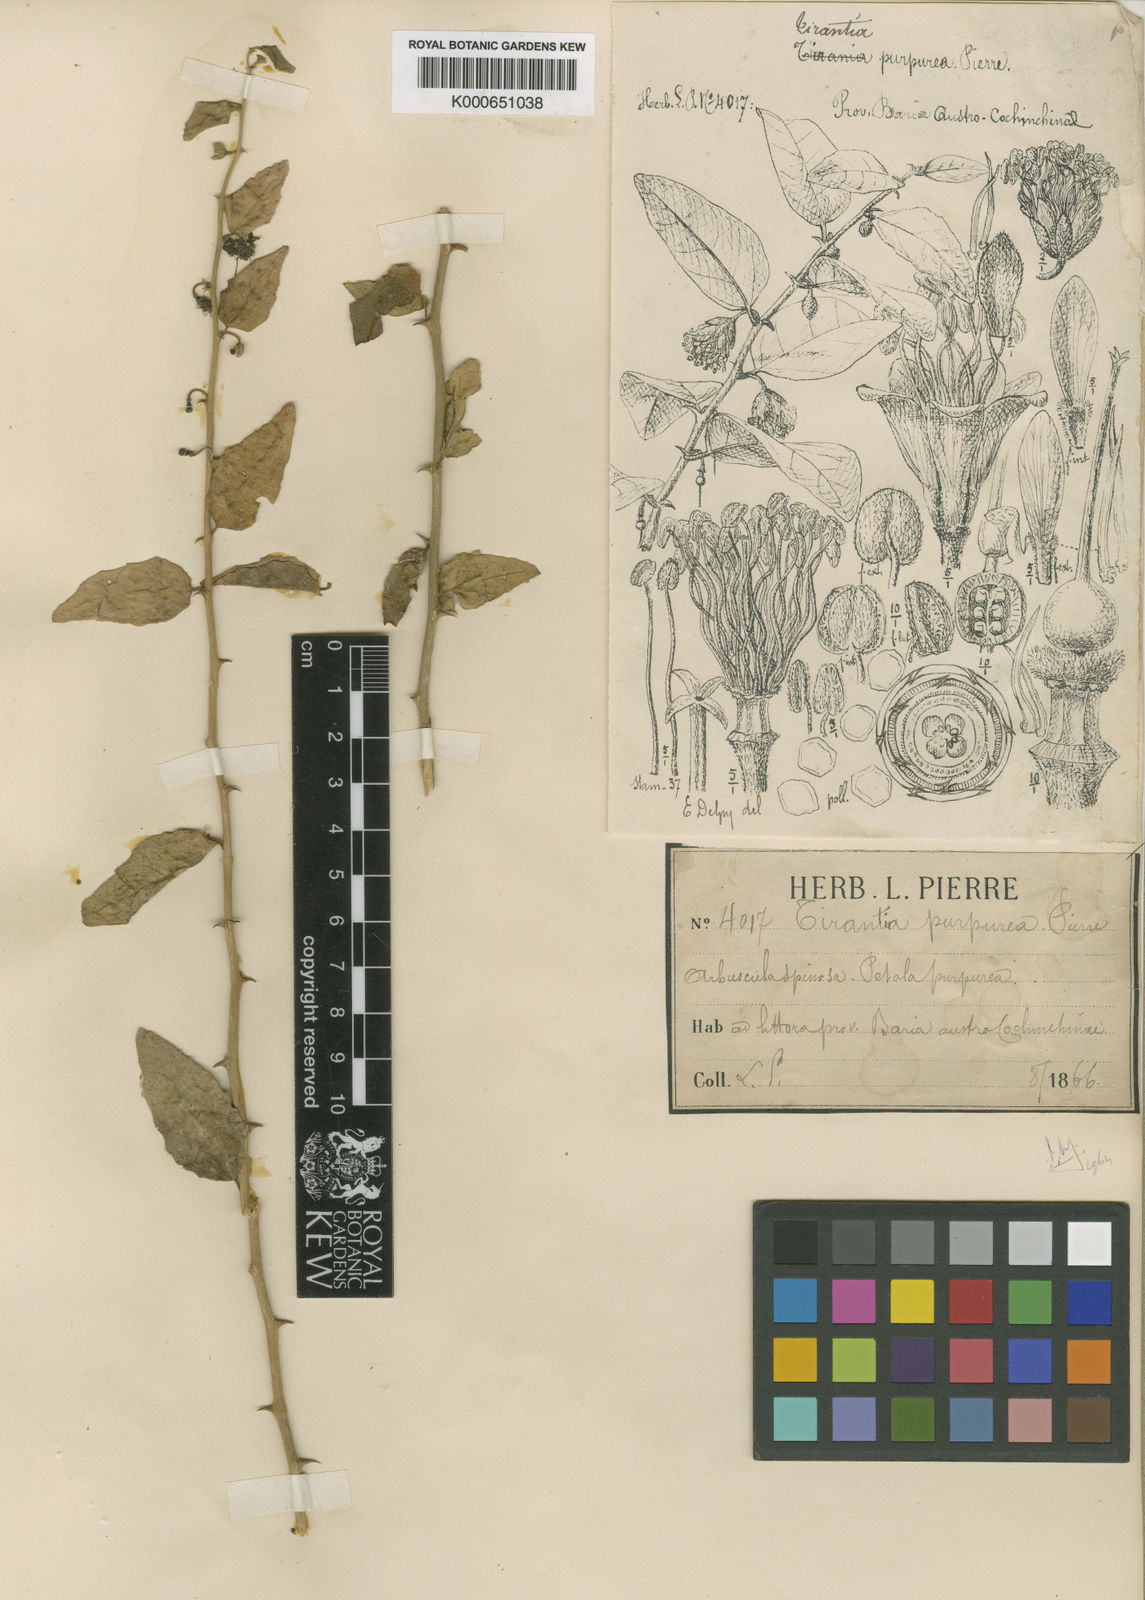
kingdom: Plantae
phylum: Tracheophyta
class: Magnoliopsida
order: Brassicales
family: Stixaceae
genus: Tirania
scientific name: Tirania purpurea
